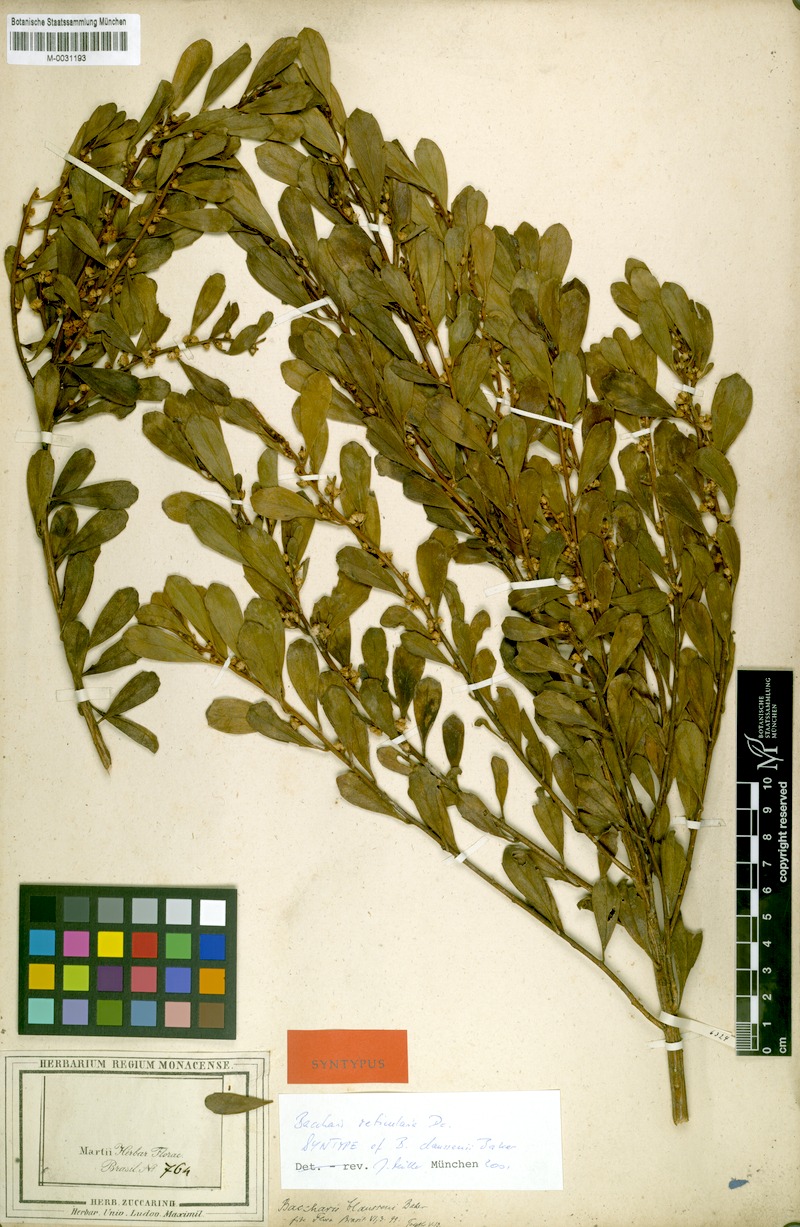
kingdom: Plantae
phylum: Tracheophyta
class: Magnoliopsida
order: Asterales
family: Asteraceae
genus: Baccharis
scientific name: Baccharis claussenii
